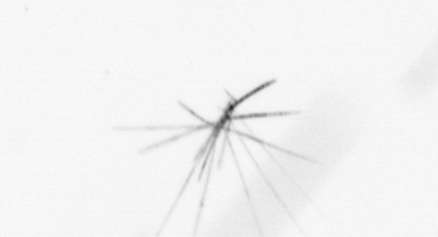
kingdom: Chromista
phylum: Ochrophyta
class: Bacillariophyceae
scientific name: Bacillariophyceae
